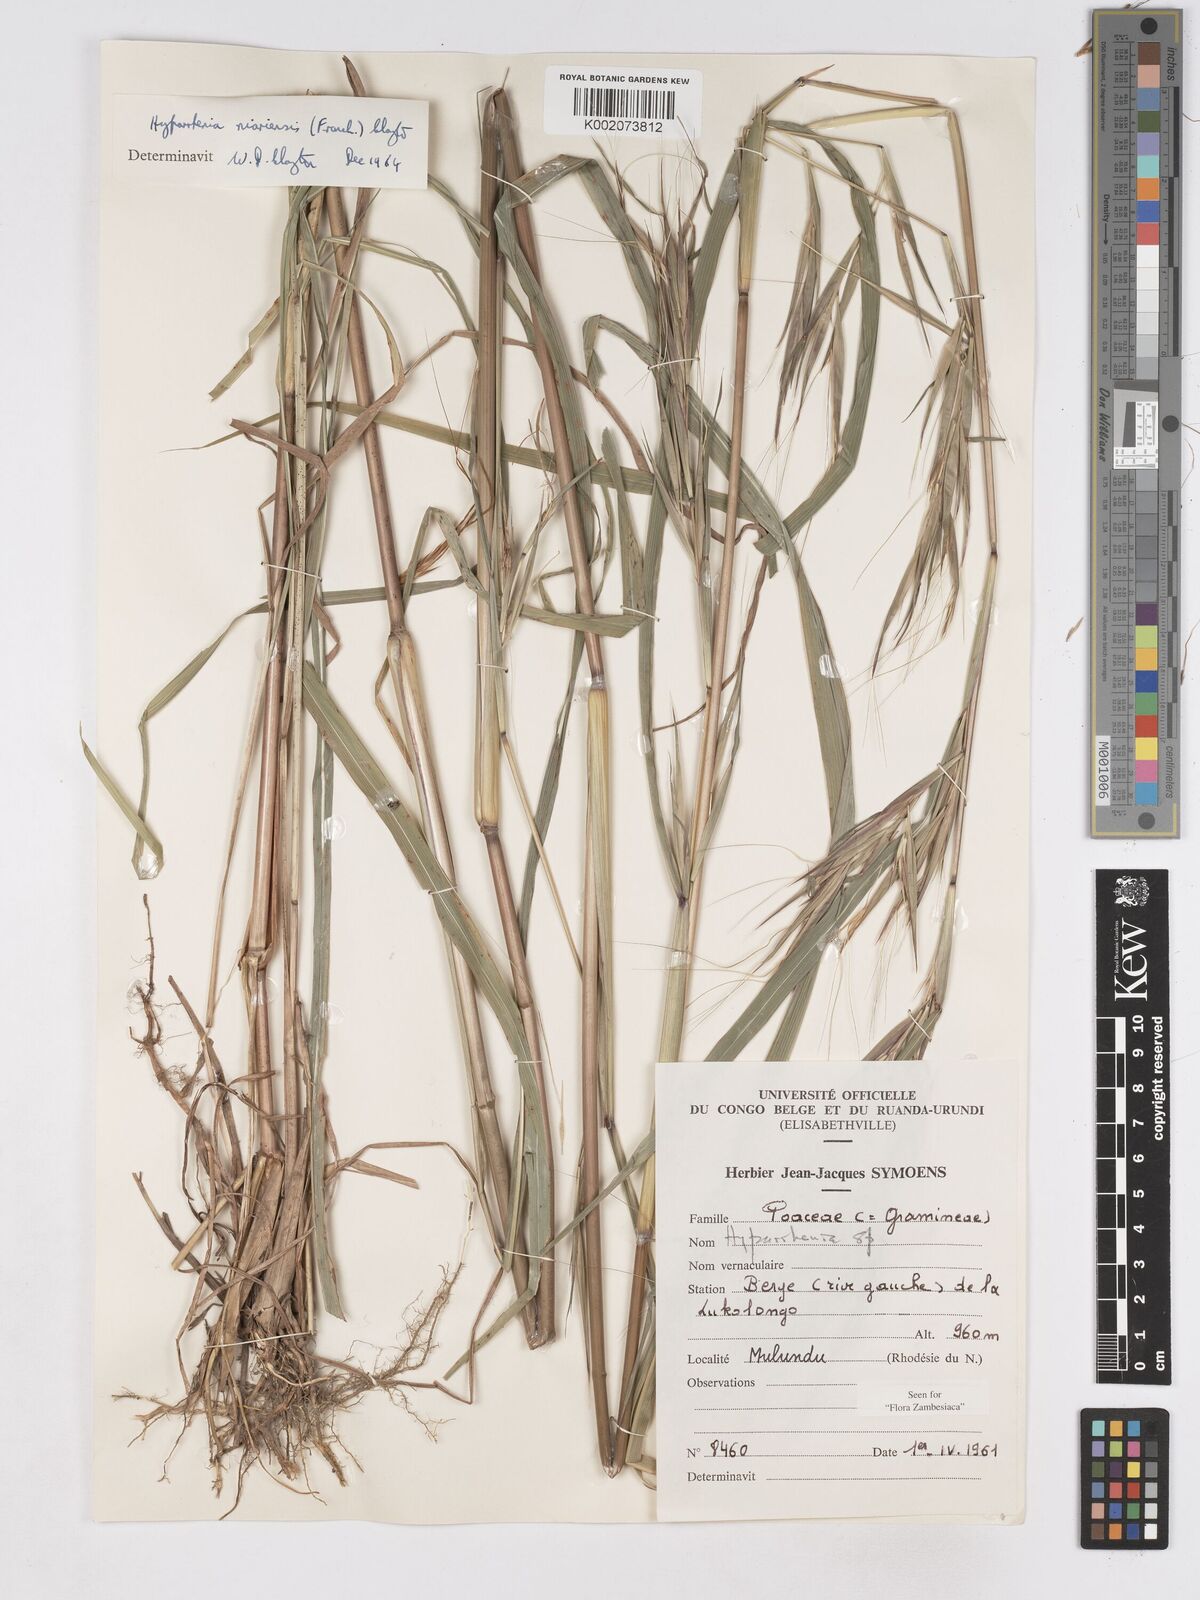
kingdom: Plantae
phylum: Tracheophyta
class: Liliopsida
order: Poales
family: Poaceae
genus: Hyparrhenia
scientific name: Hyparrhenia niariensis
